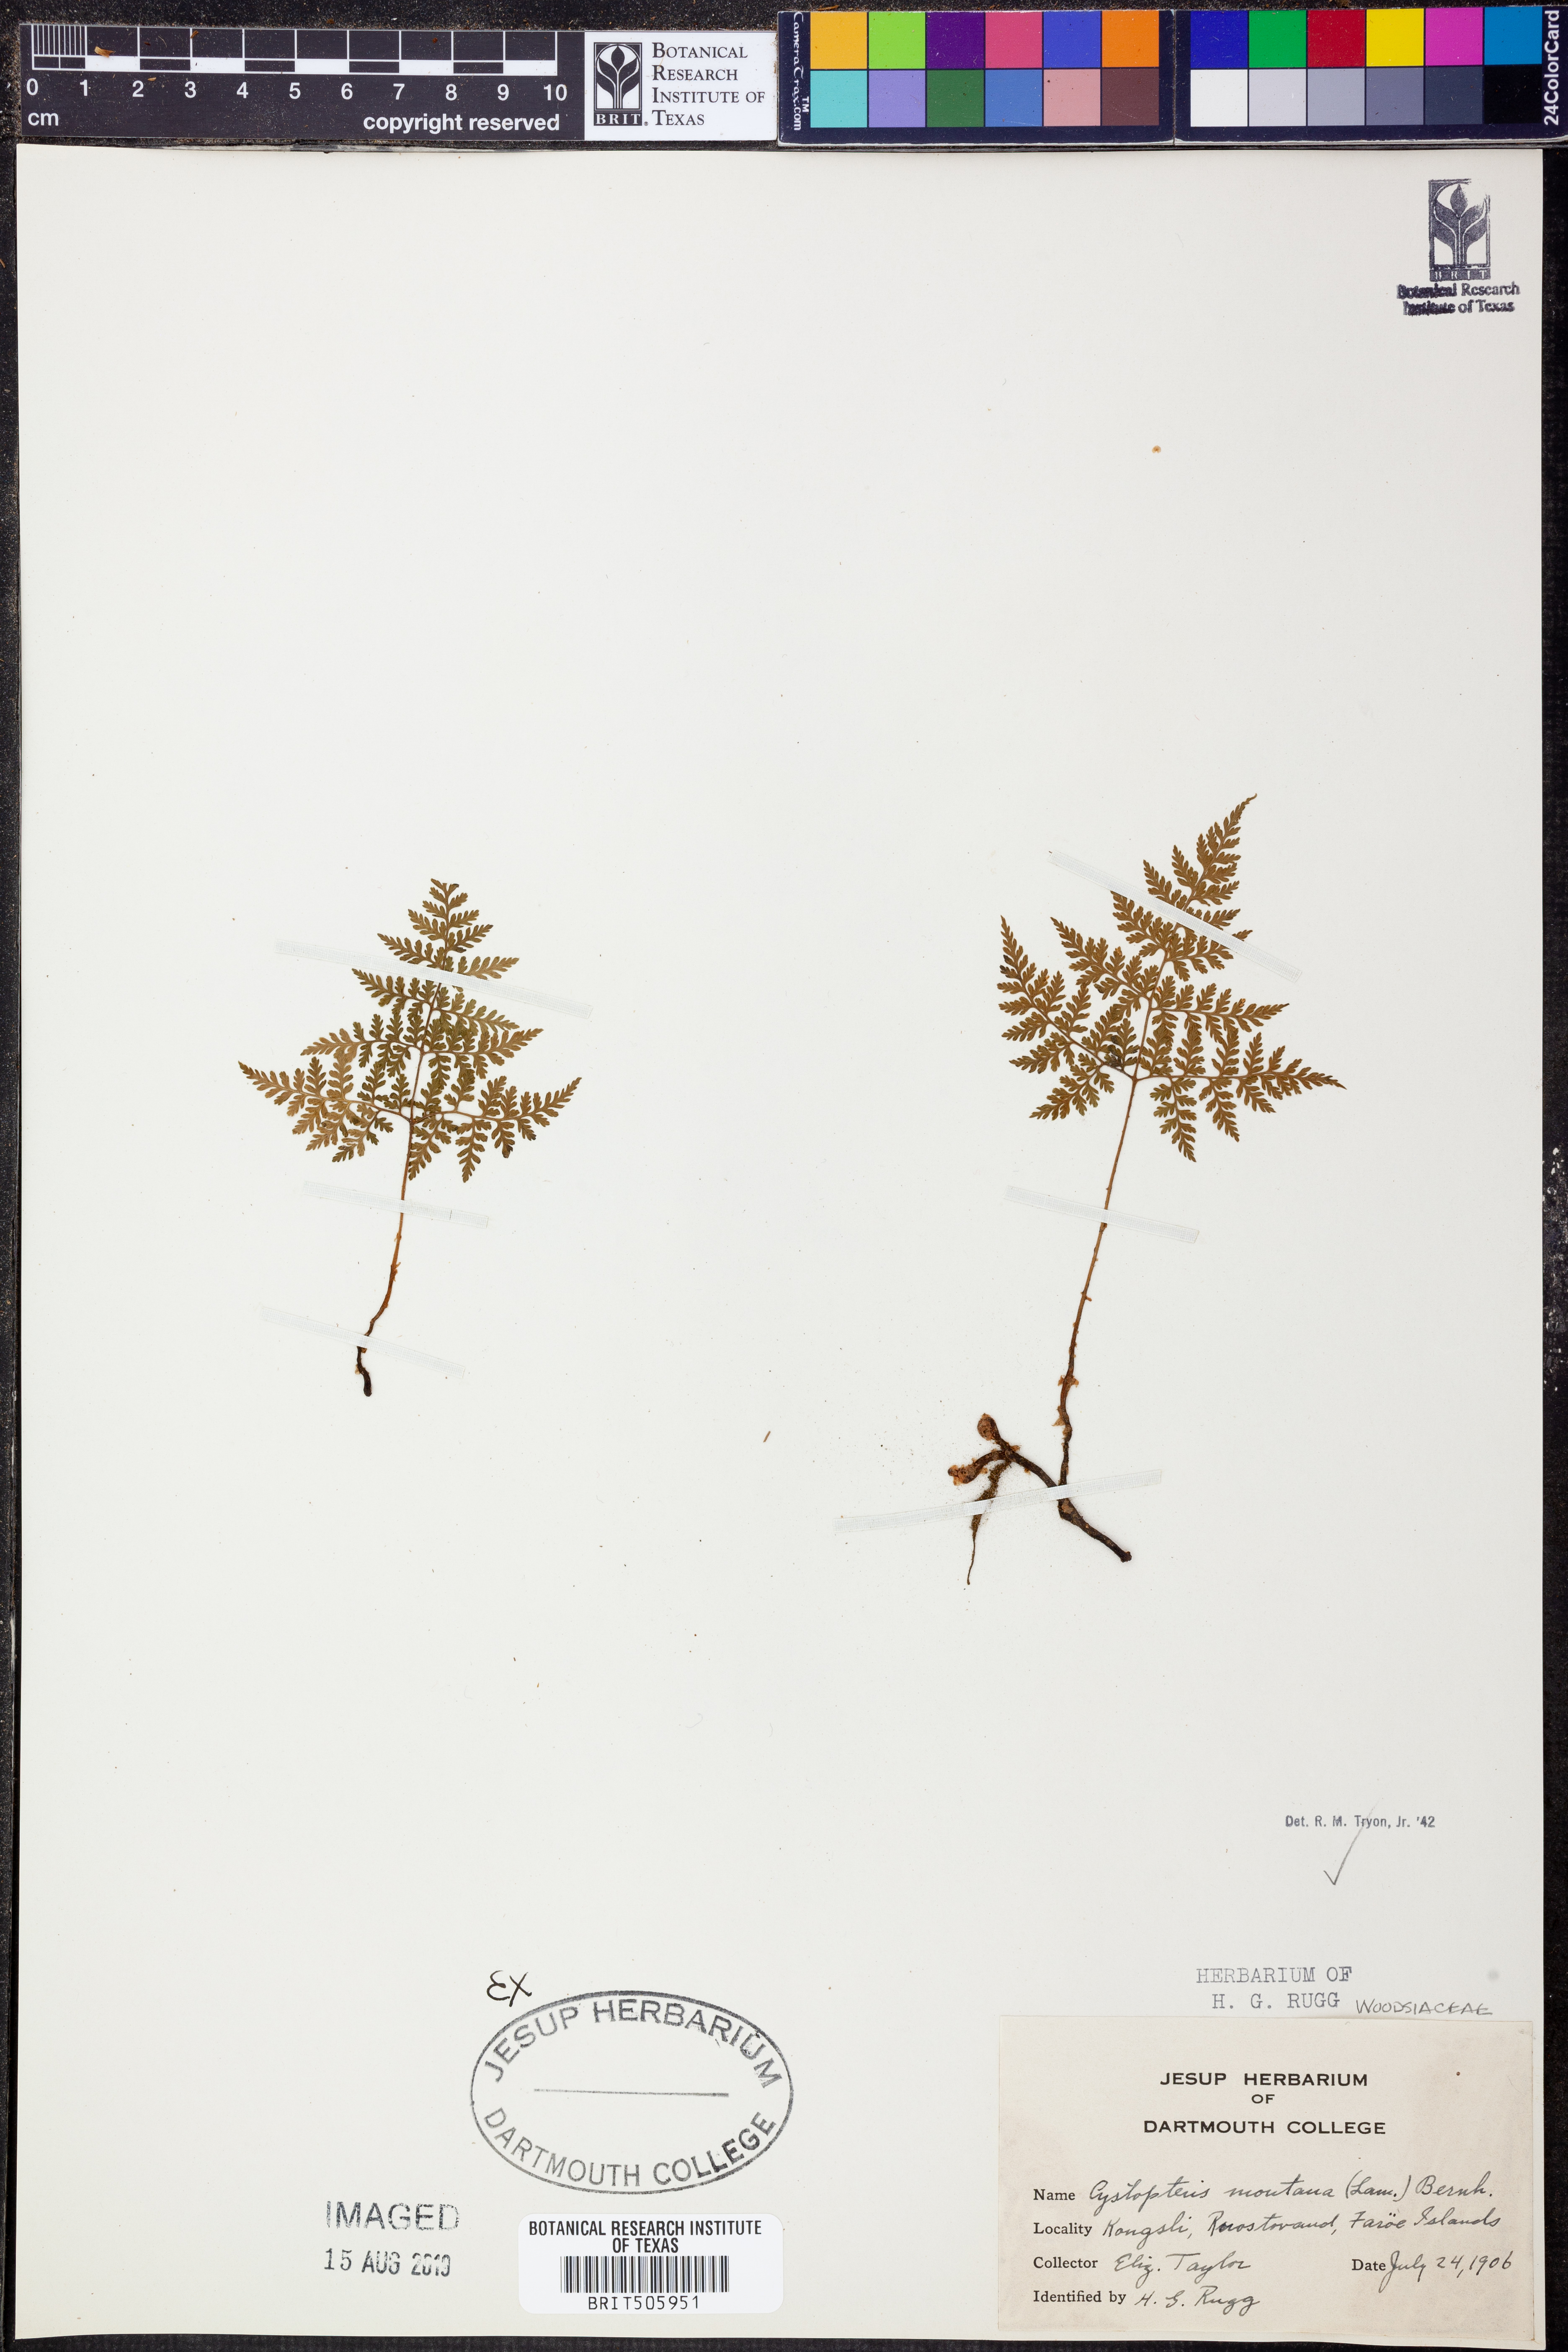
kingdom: Plantae
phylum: Tracheophyta
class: Polypodiopsida
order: Polypodiales
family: Cystopteridaceae
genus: Cystopteris
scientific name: Cystopteris montana
